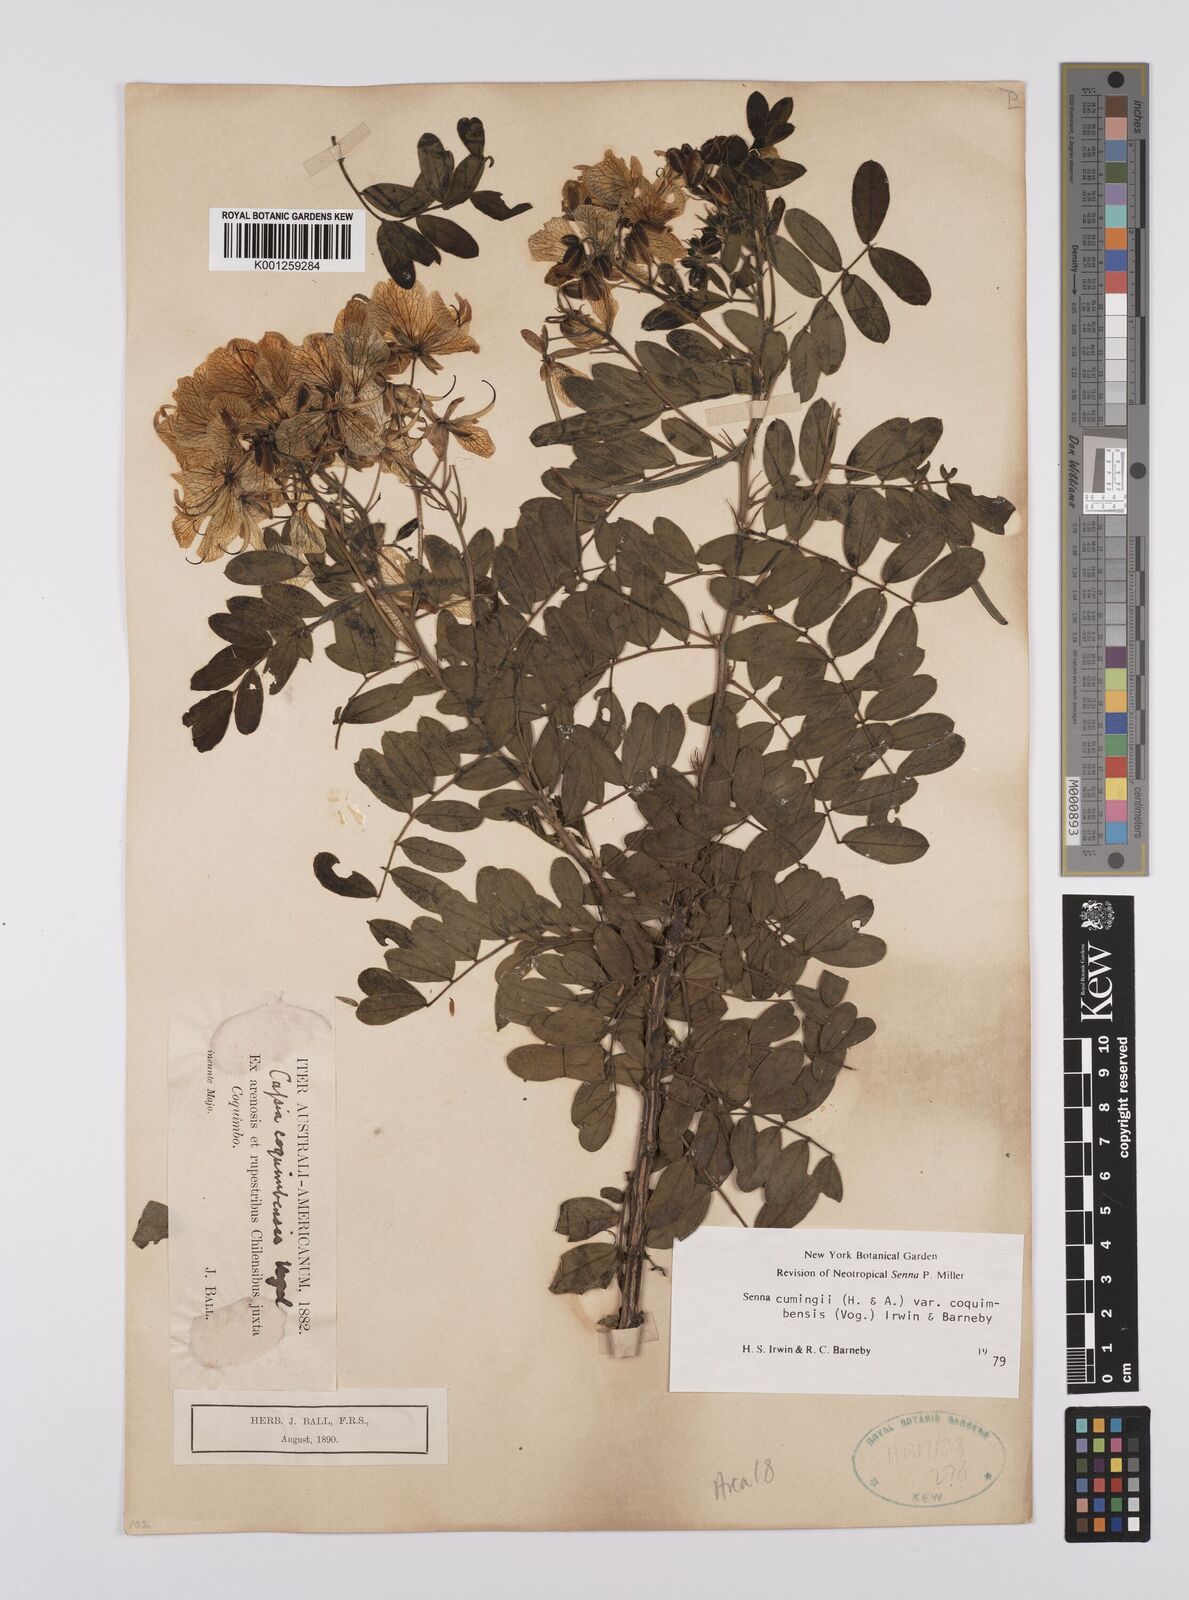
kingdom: Plantae
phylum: Tracheophyta
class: Magnoliopsida
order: Fabales
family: Fabaceae
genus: Senna
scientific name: Senna cumingii
